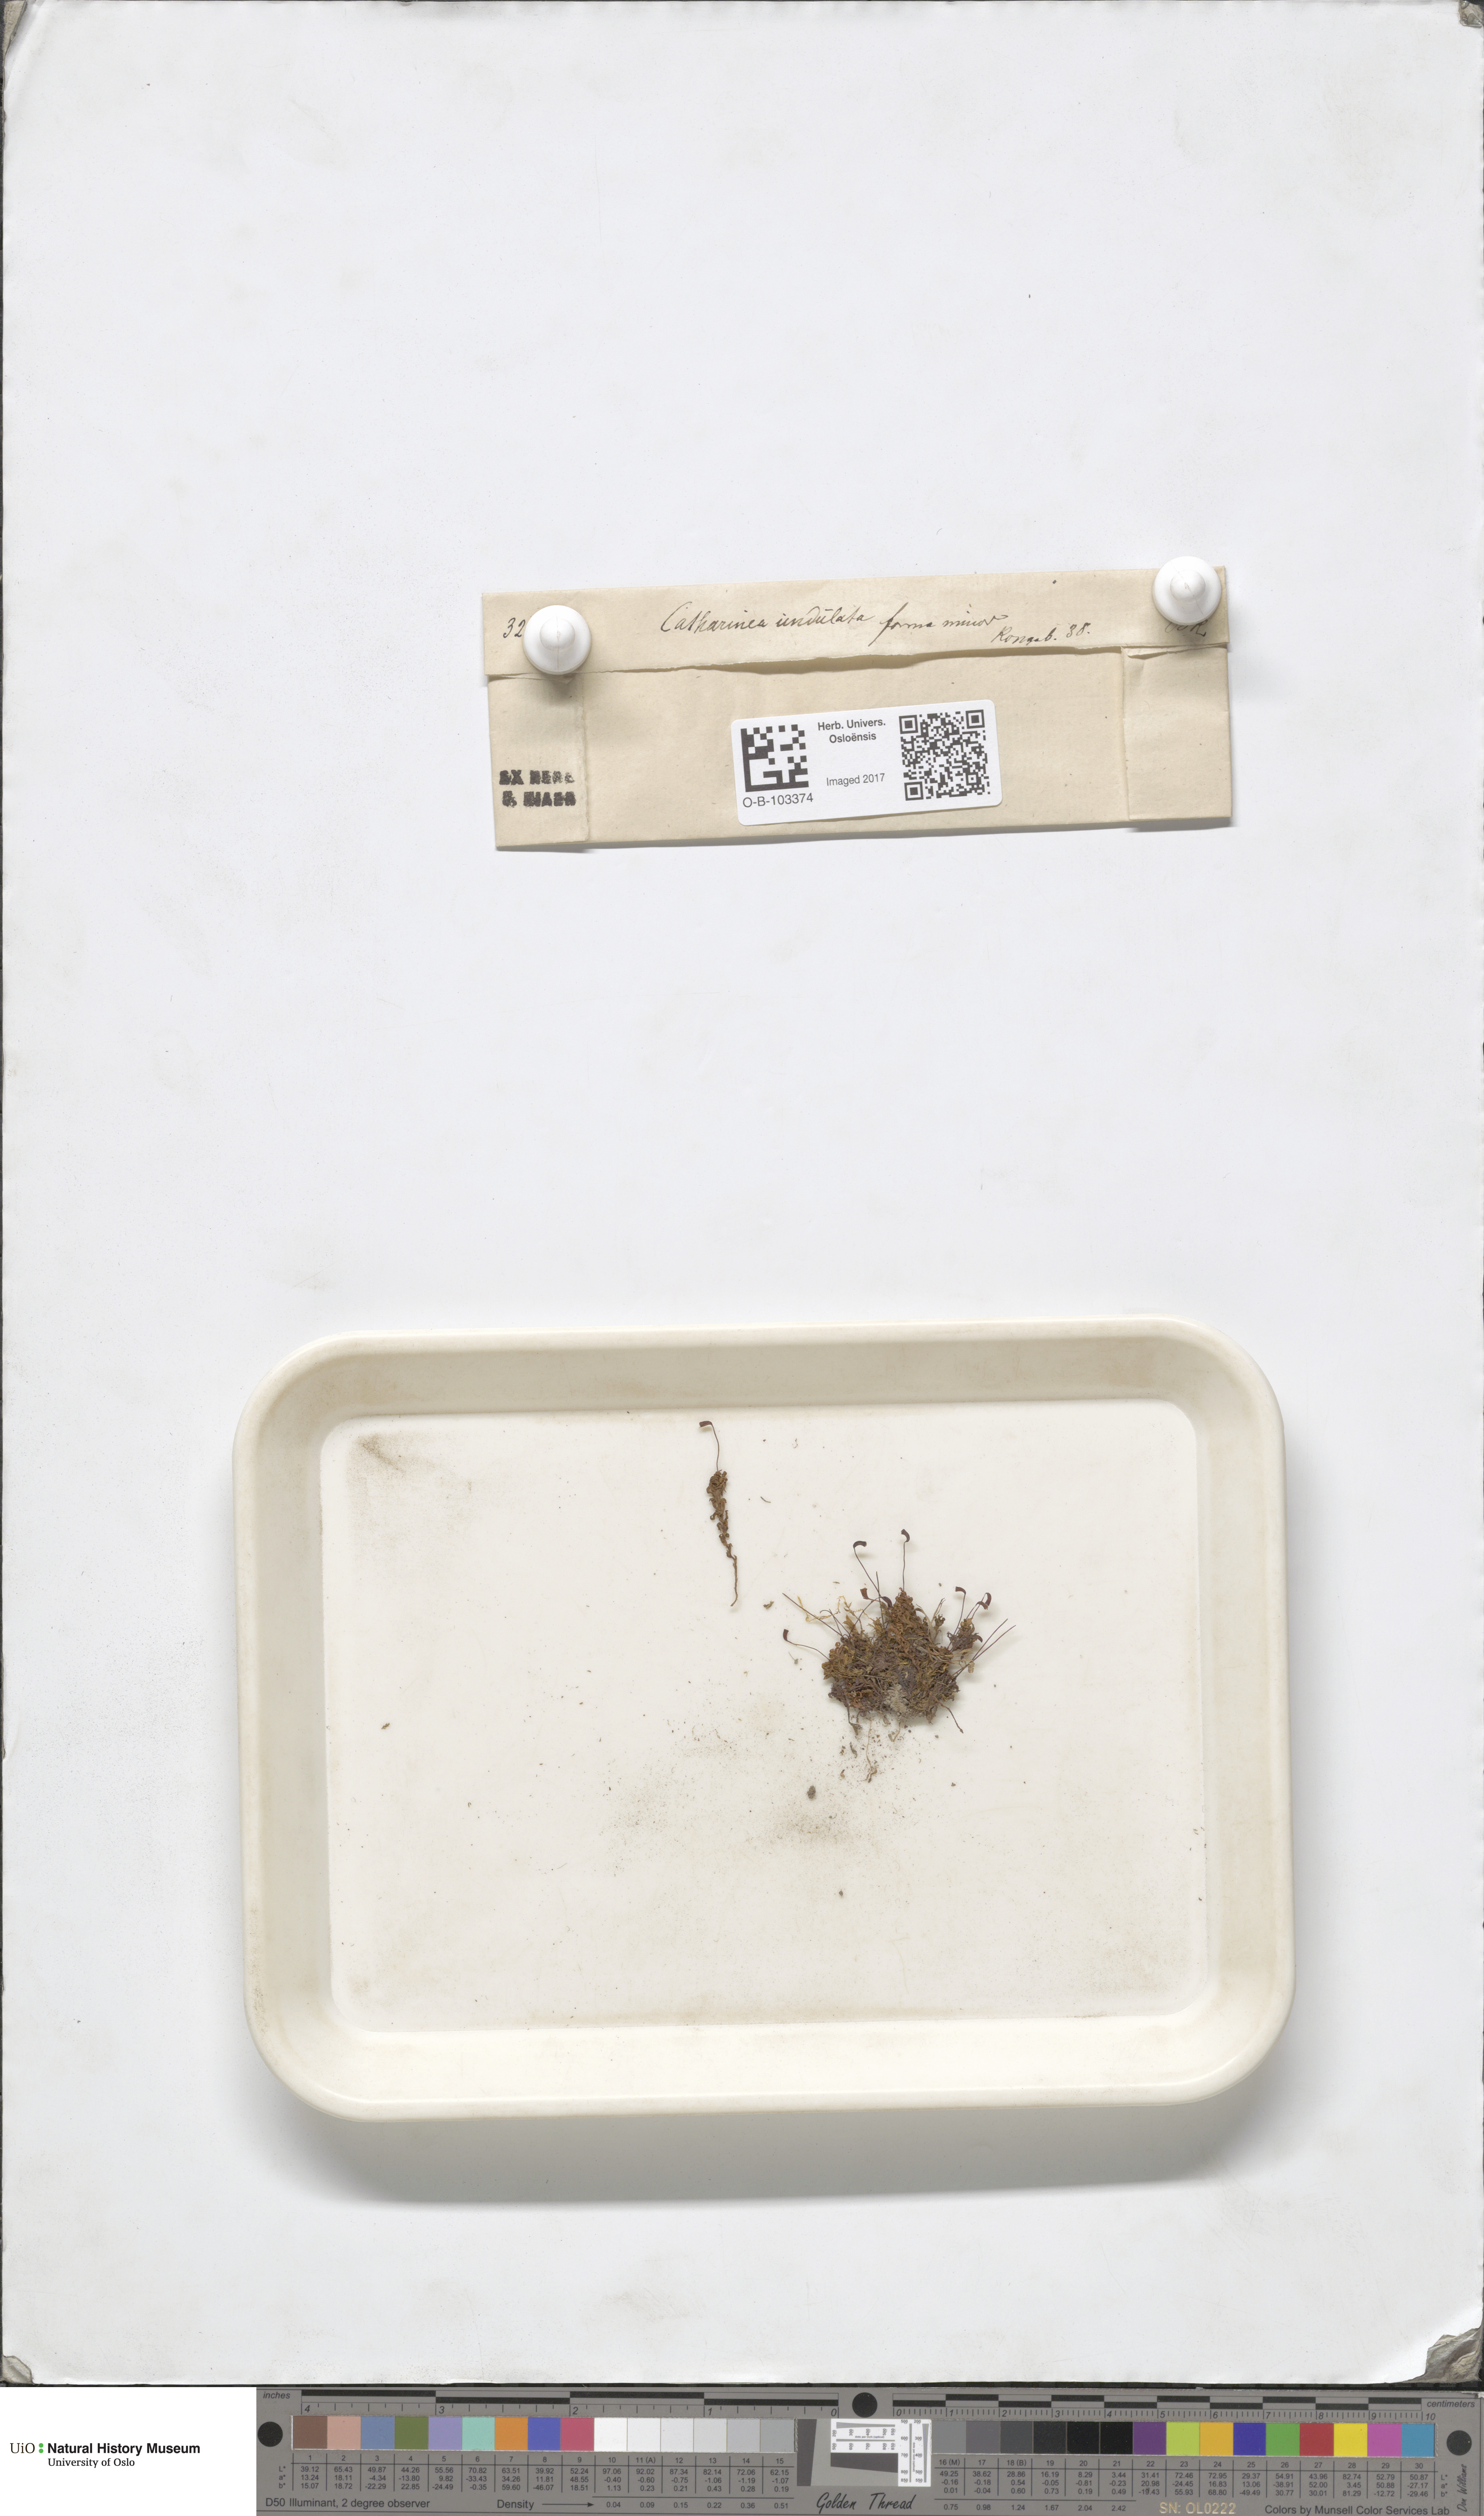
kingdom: Plantae
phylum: Bryophyta
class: Polytrichopsida
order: Polytrichales
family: Polytrichaceae
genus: Atrichum
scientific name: Atrichum undulatum
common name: Common smoothcap
